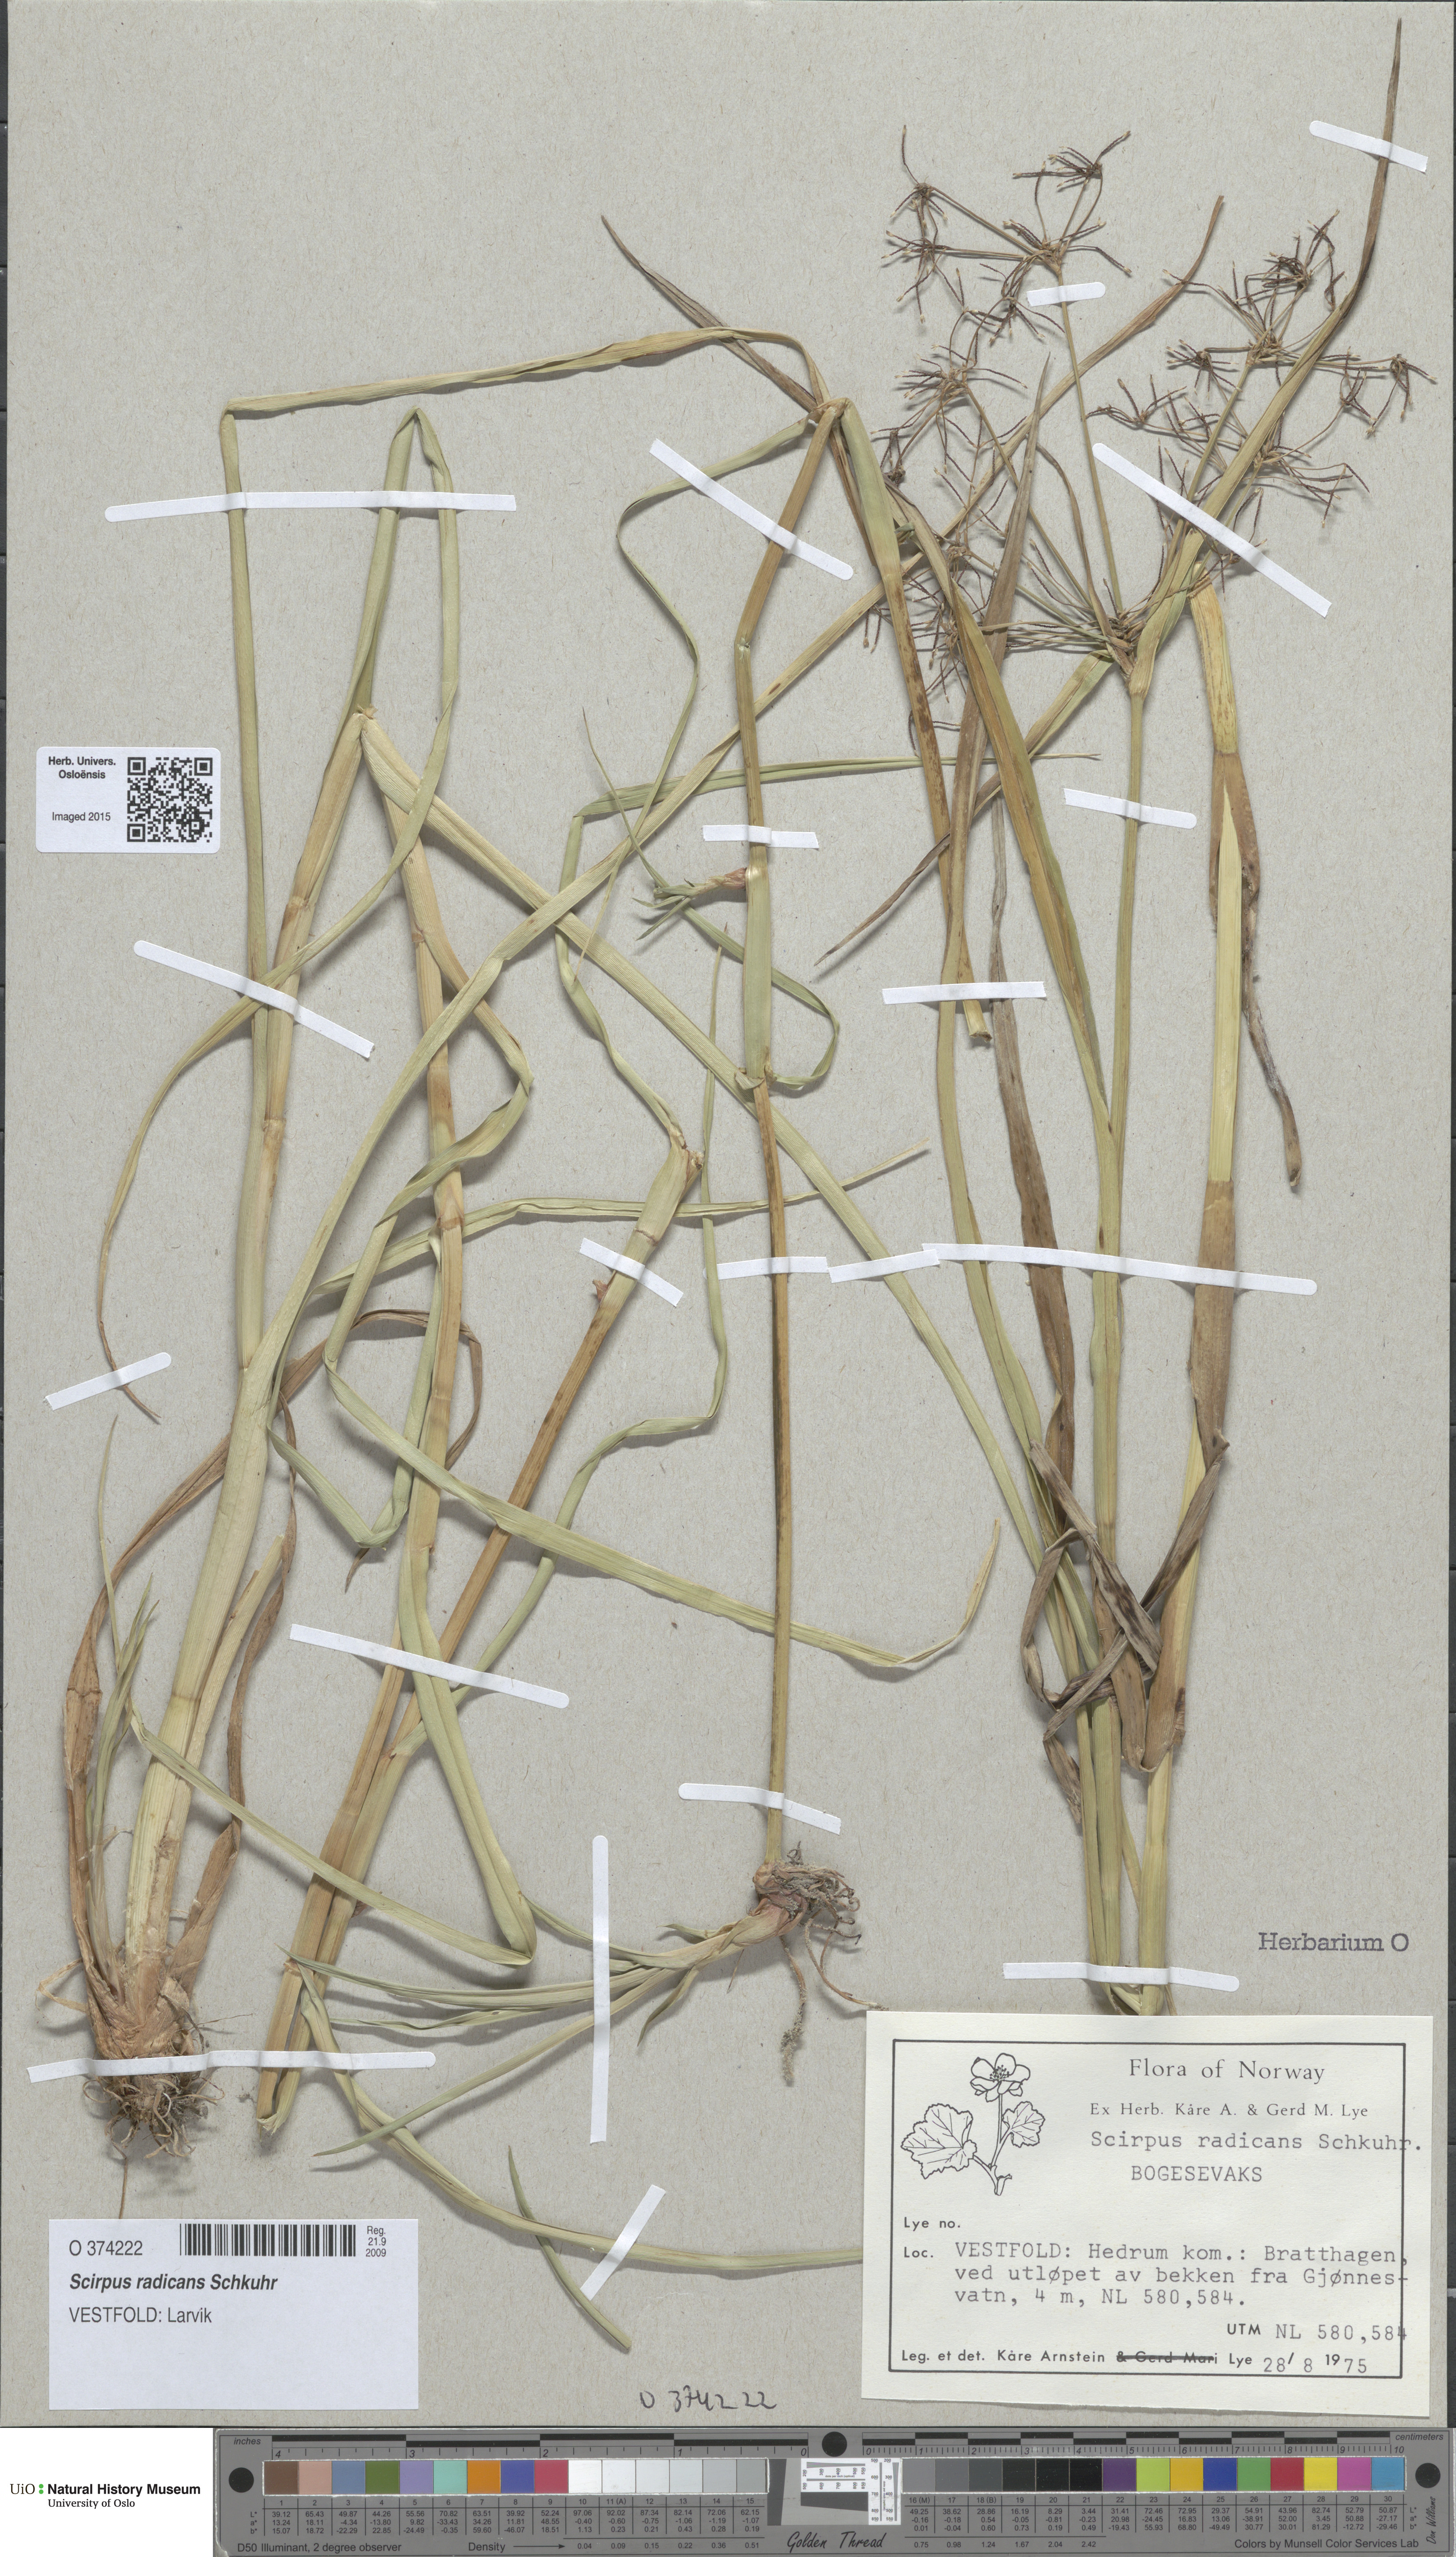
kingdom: Plantae
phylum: Tracheophyta
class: Liliopsida
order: Poales
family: Cyperaceae
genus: Scirpus
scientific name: Scirpus radicans
